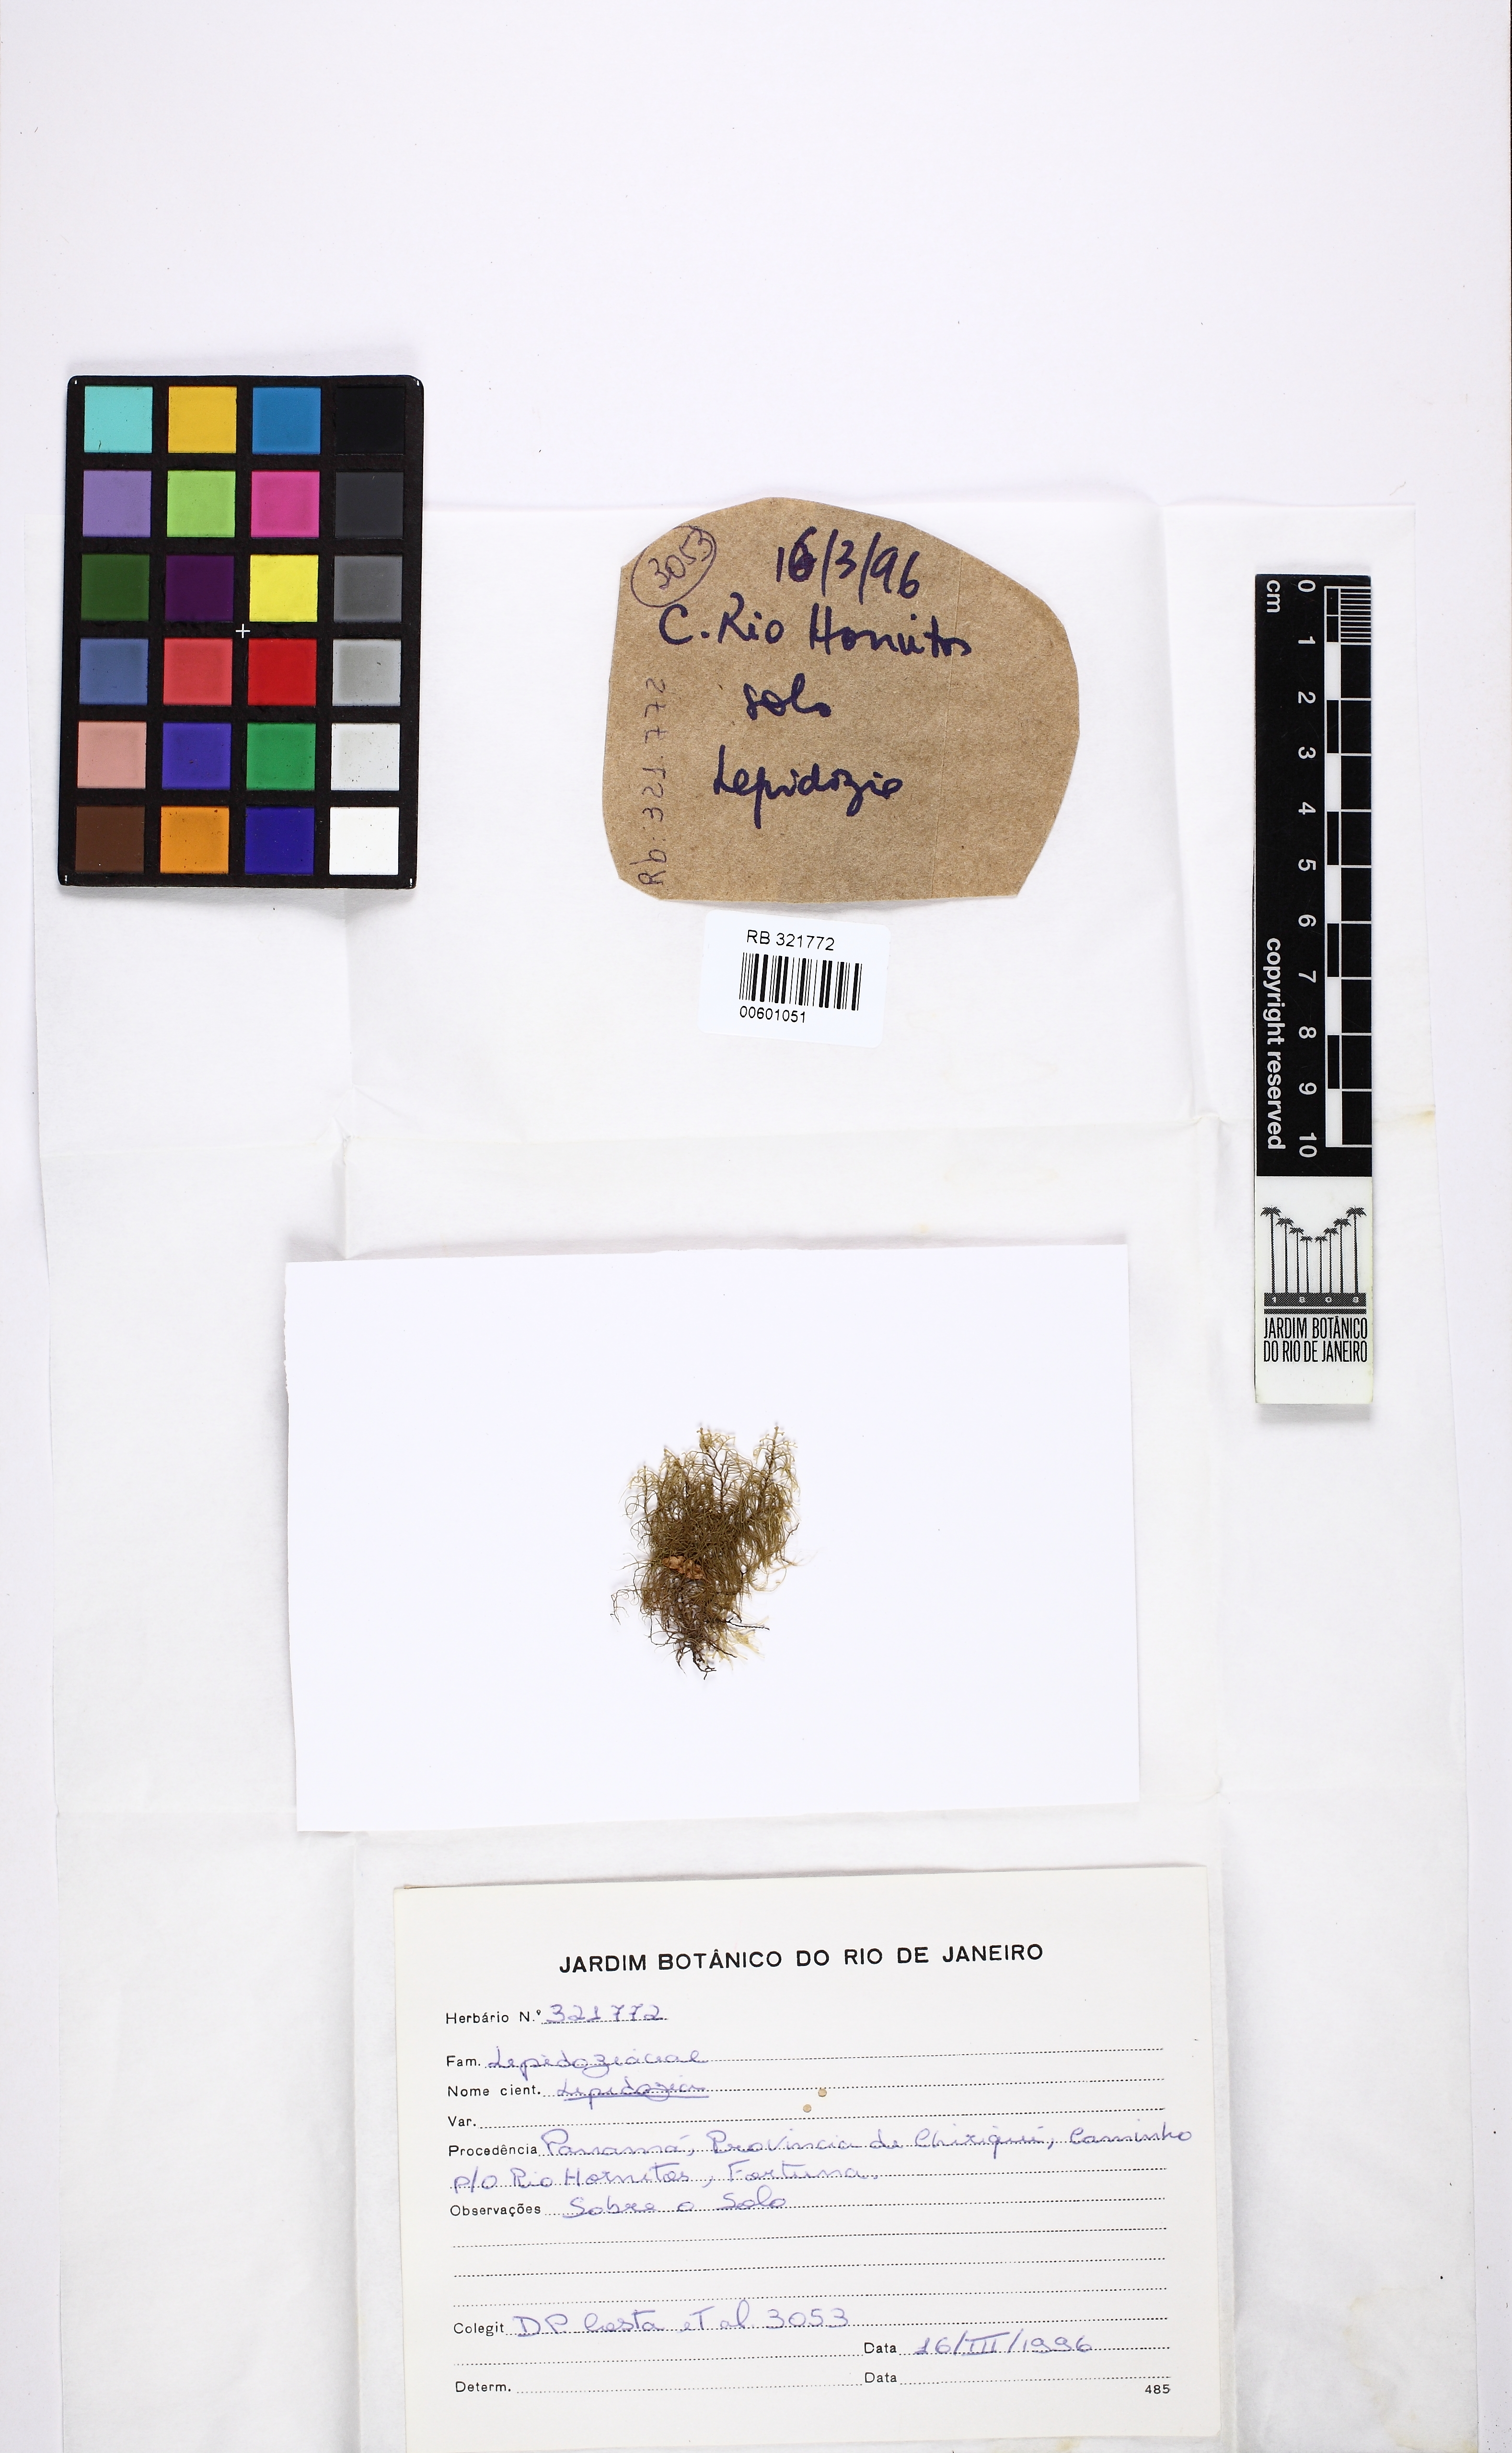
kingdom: Plantae
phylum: Marchantiophyta
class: Jungermanniopsida
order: Jungermanniales
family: Lepidoziaceae
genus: Lepidozia
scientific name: Lepidozia macrocolea
